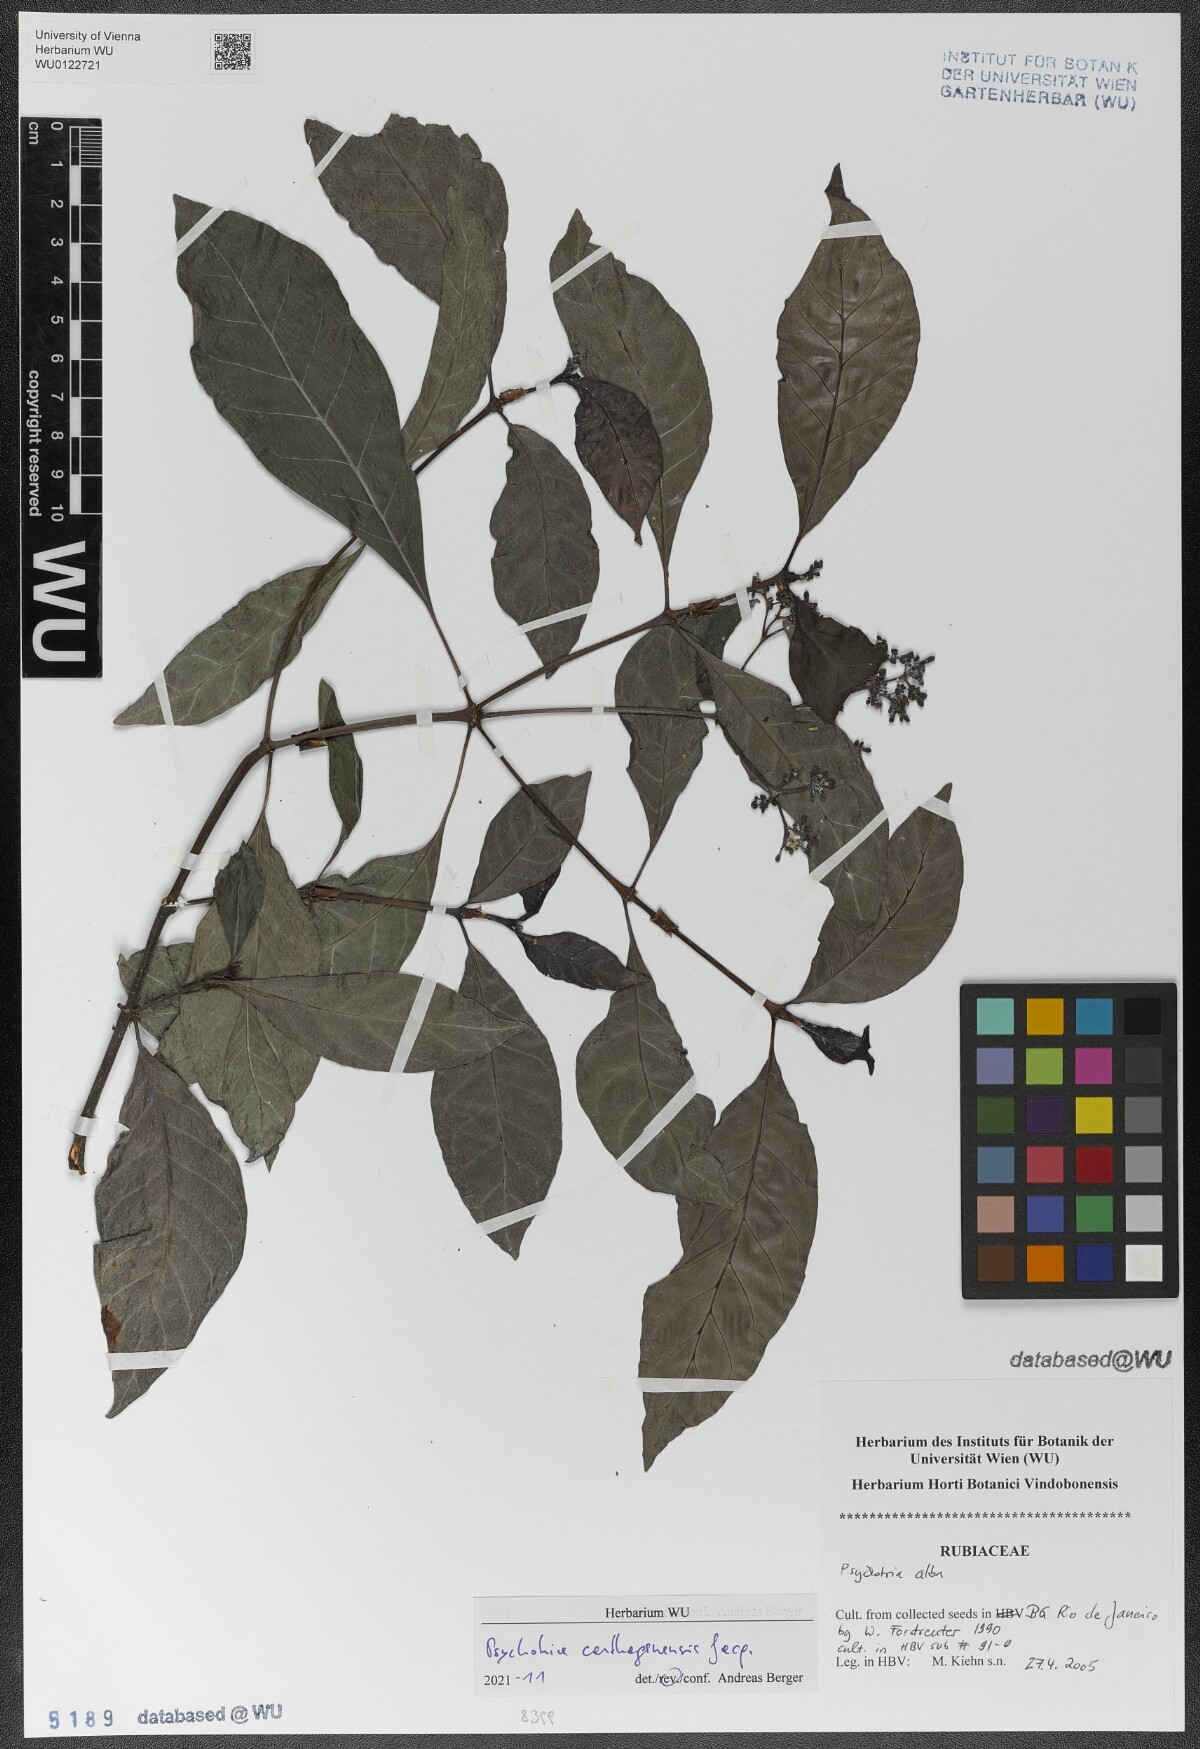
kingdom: Plantae
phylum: Tracheophyta
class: Magnoliopsida
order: Gentianales
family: Rubiaceae
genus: Psychotria
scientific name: Psychotria carthagenensis
